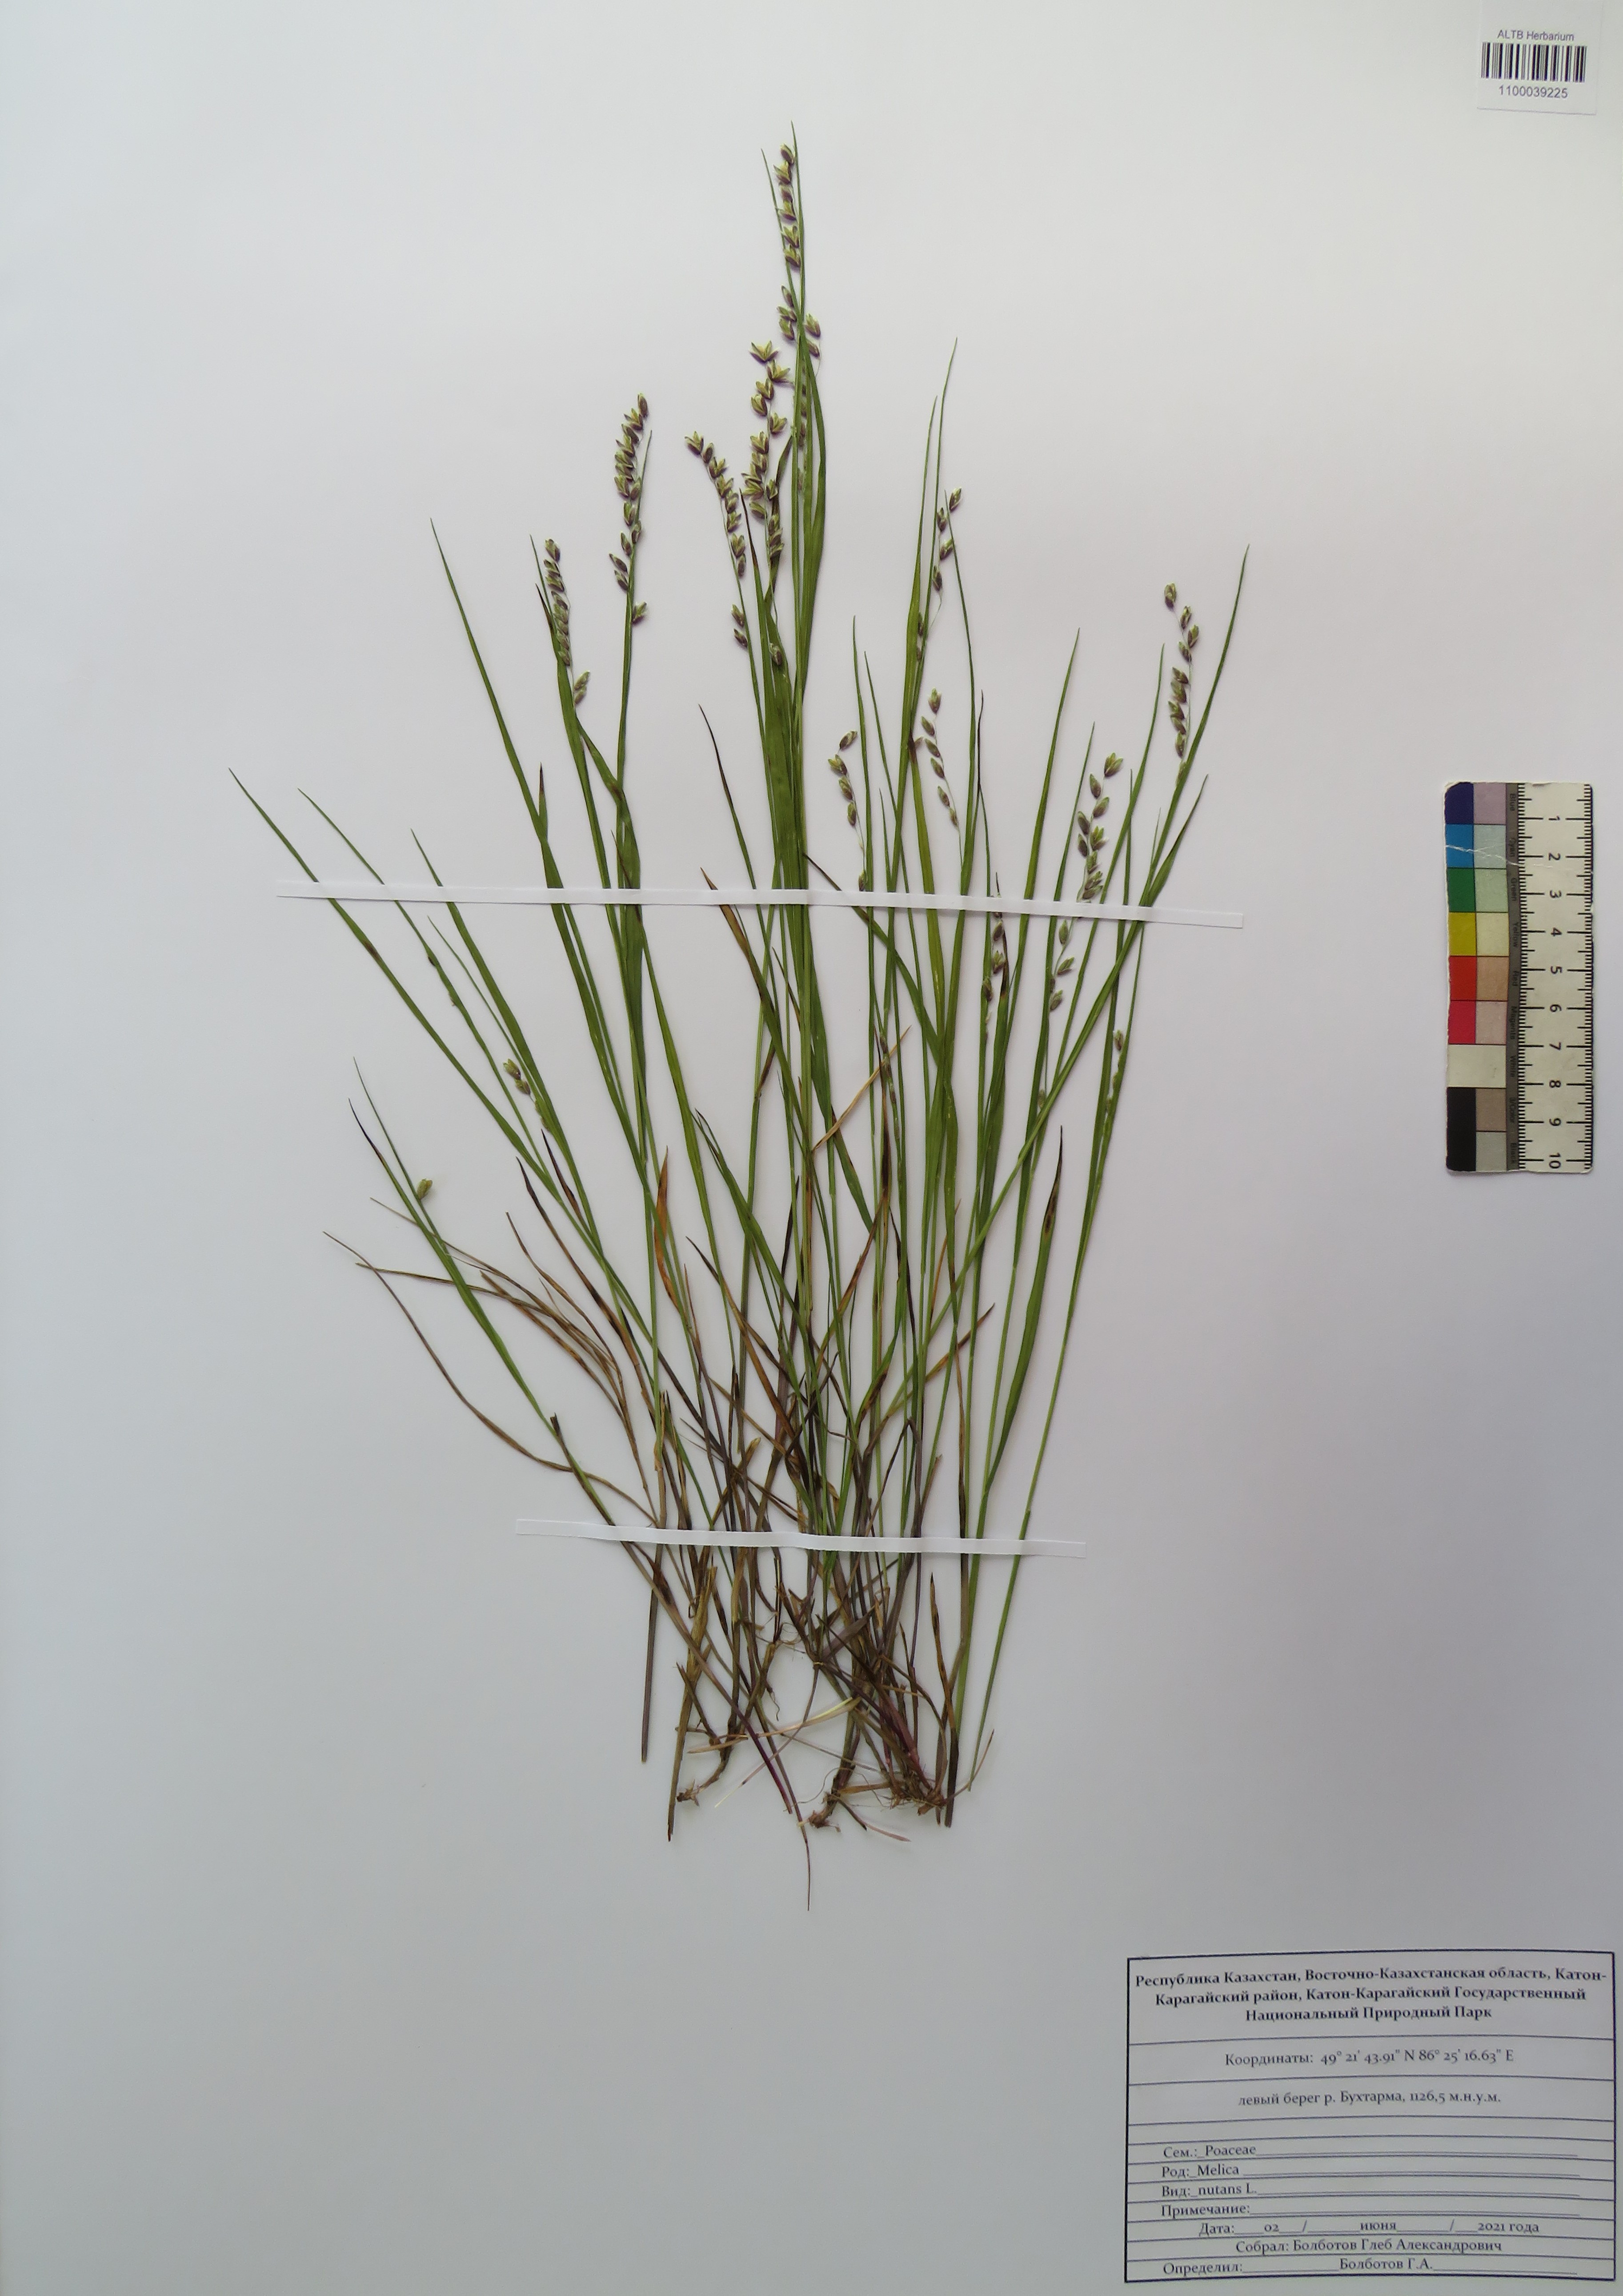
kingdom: Plantae
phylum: Tracheophyta
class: Liliopsida
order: Poales
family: Poaceae
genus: Melica
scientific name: Melica nutans
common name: Mountain melick
